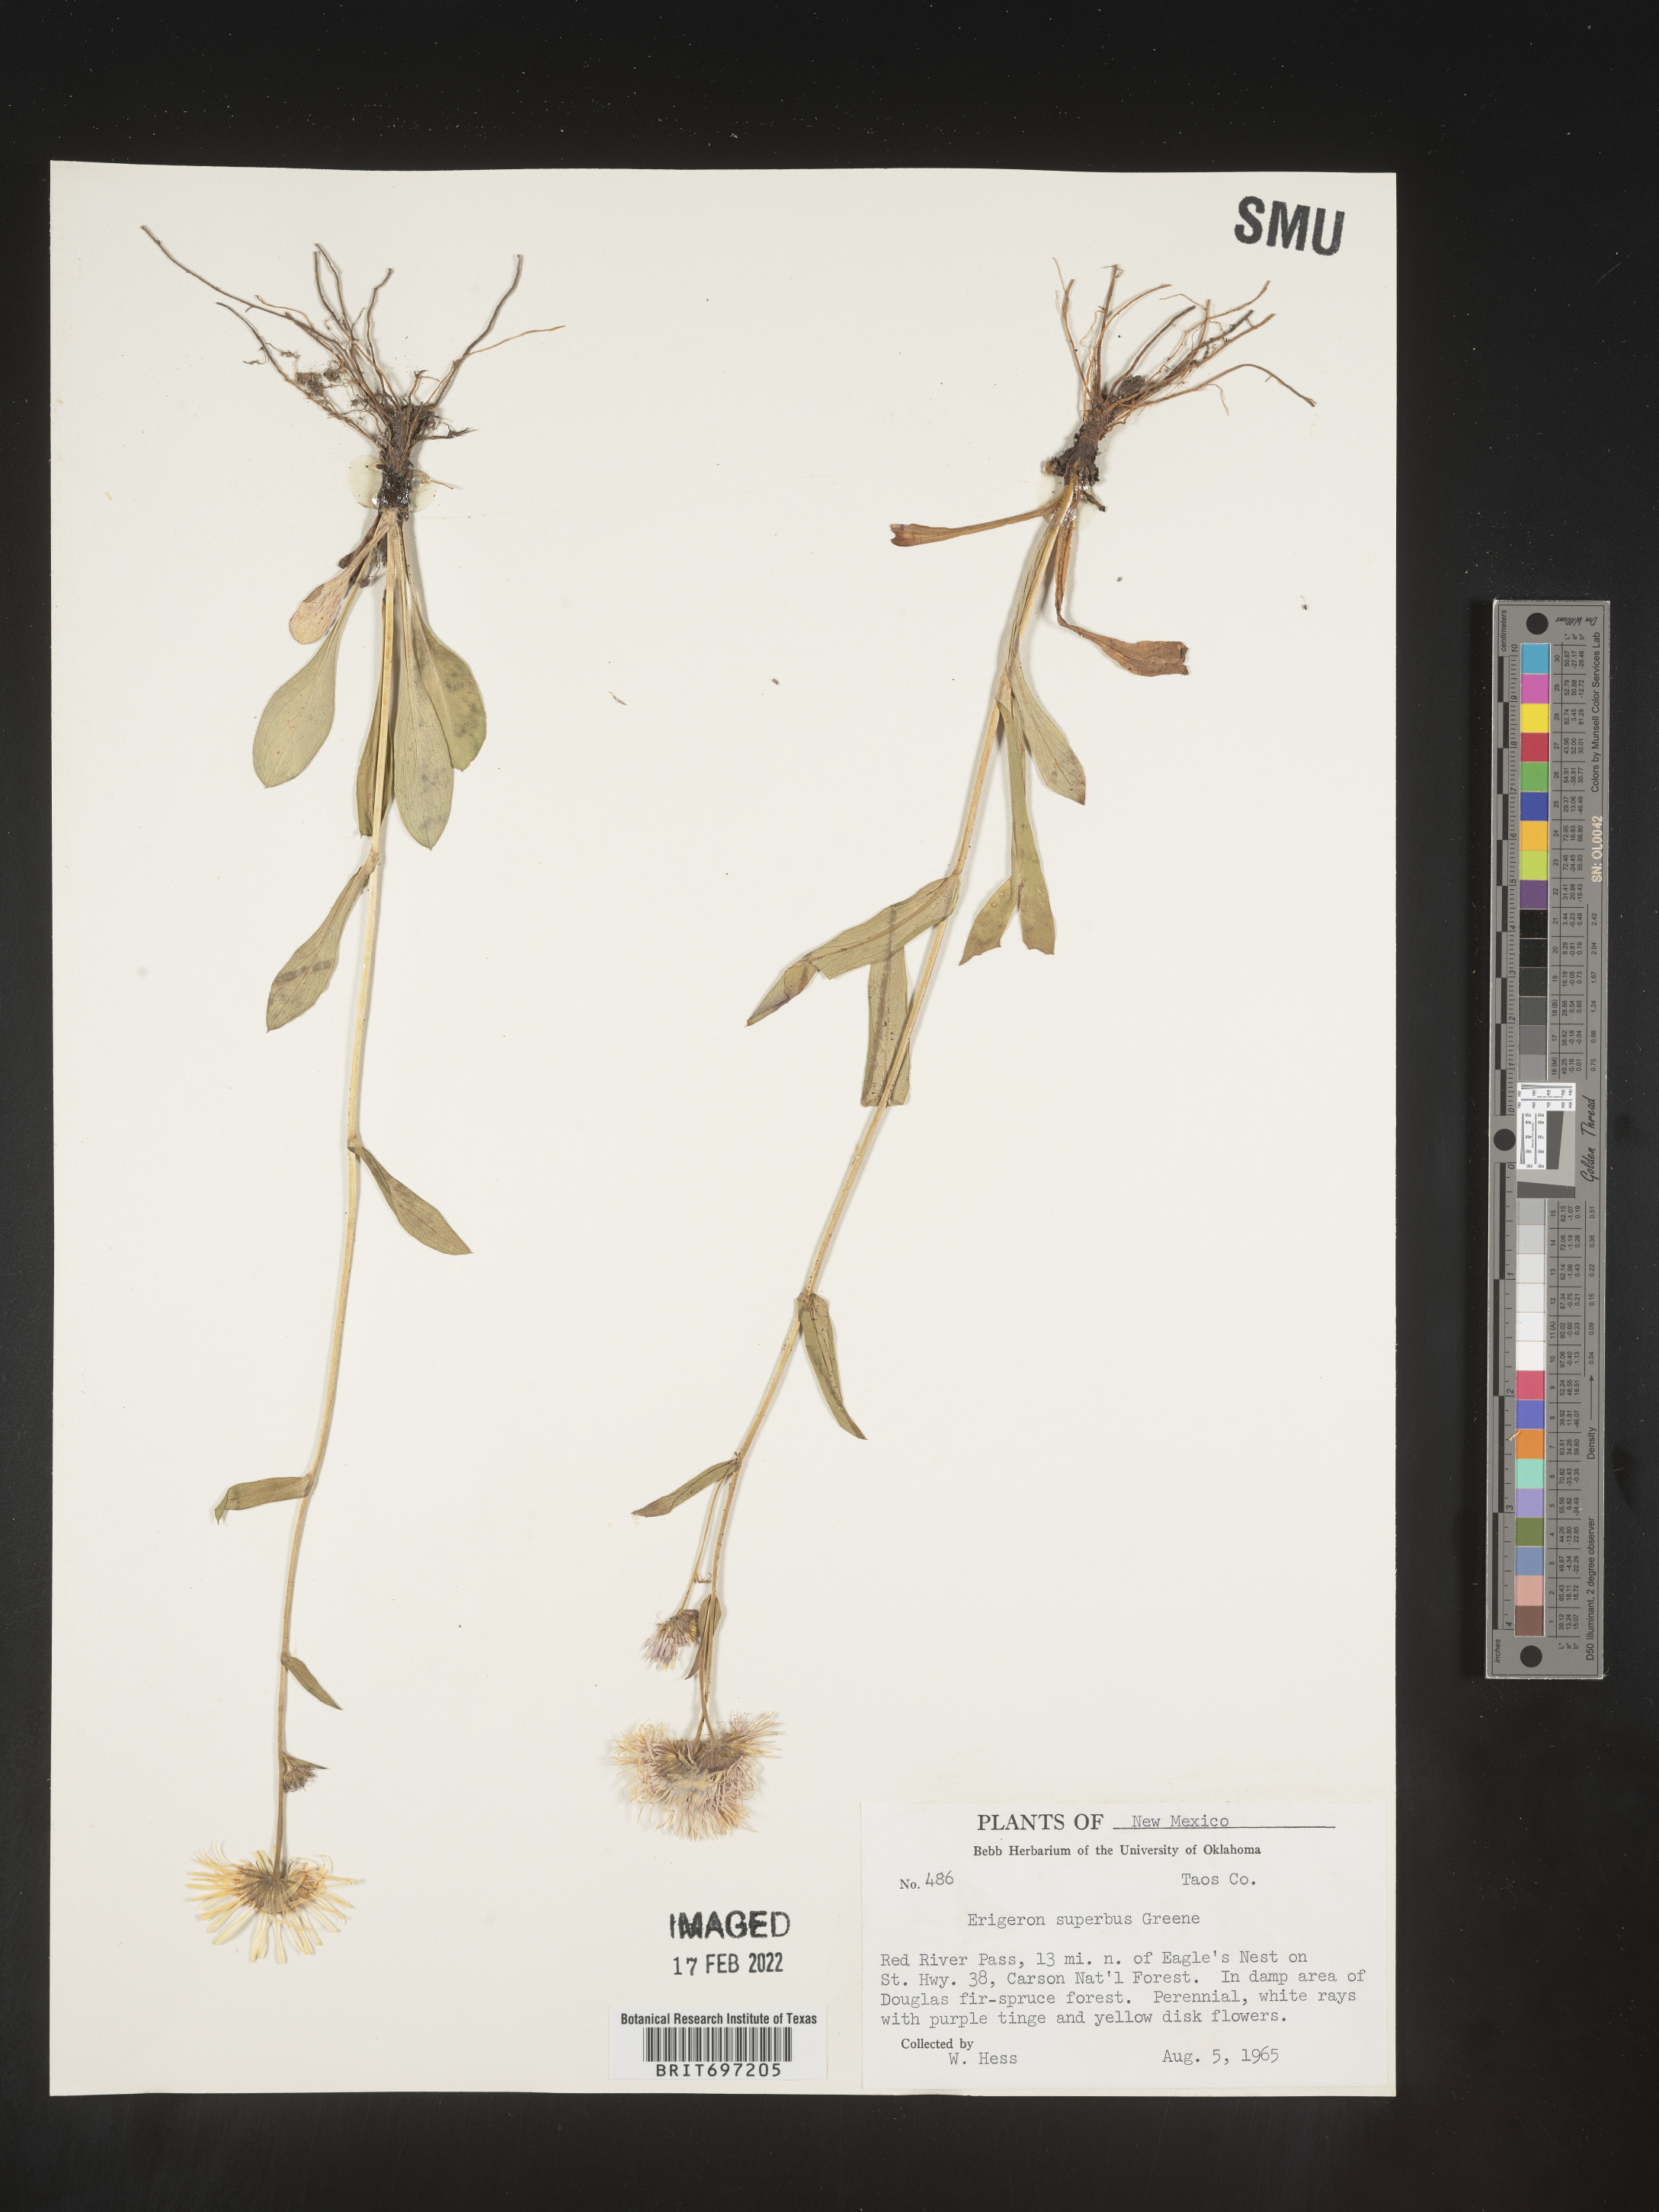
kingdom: Plantae
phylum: Tracheophyta
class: Magnoliopsida
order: Asterales
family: Asteraceae
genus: Erigeron
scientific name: Erigeron eximius
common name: Spruce-fir fleabane
